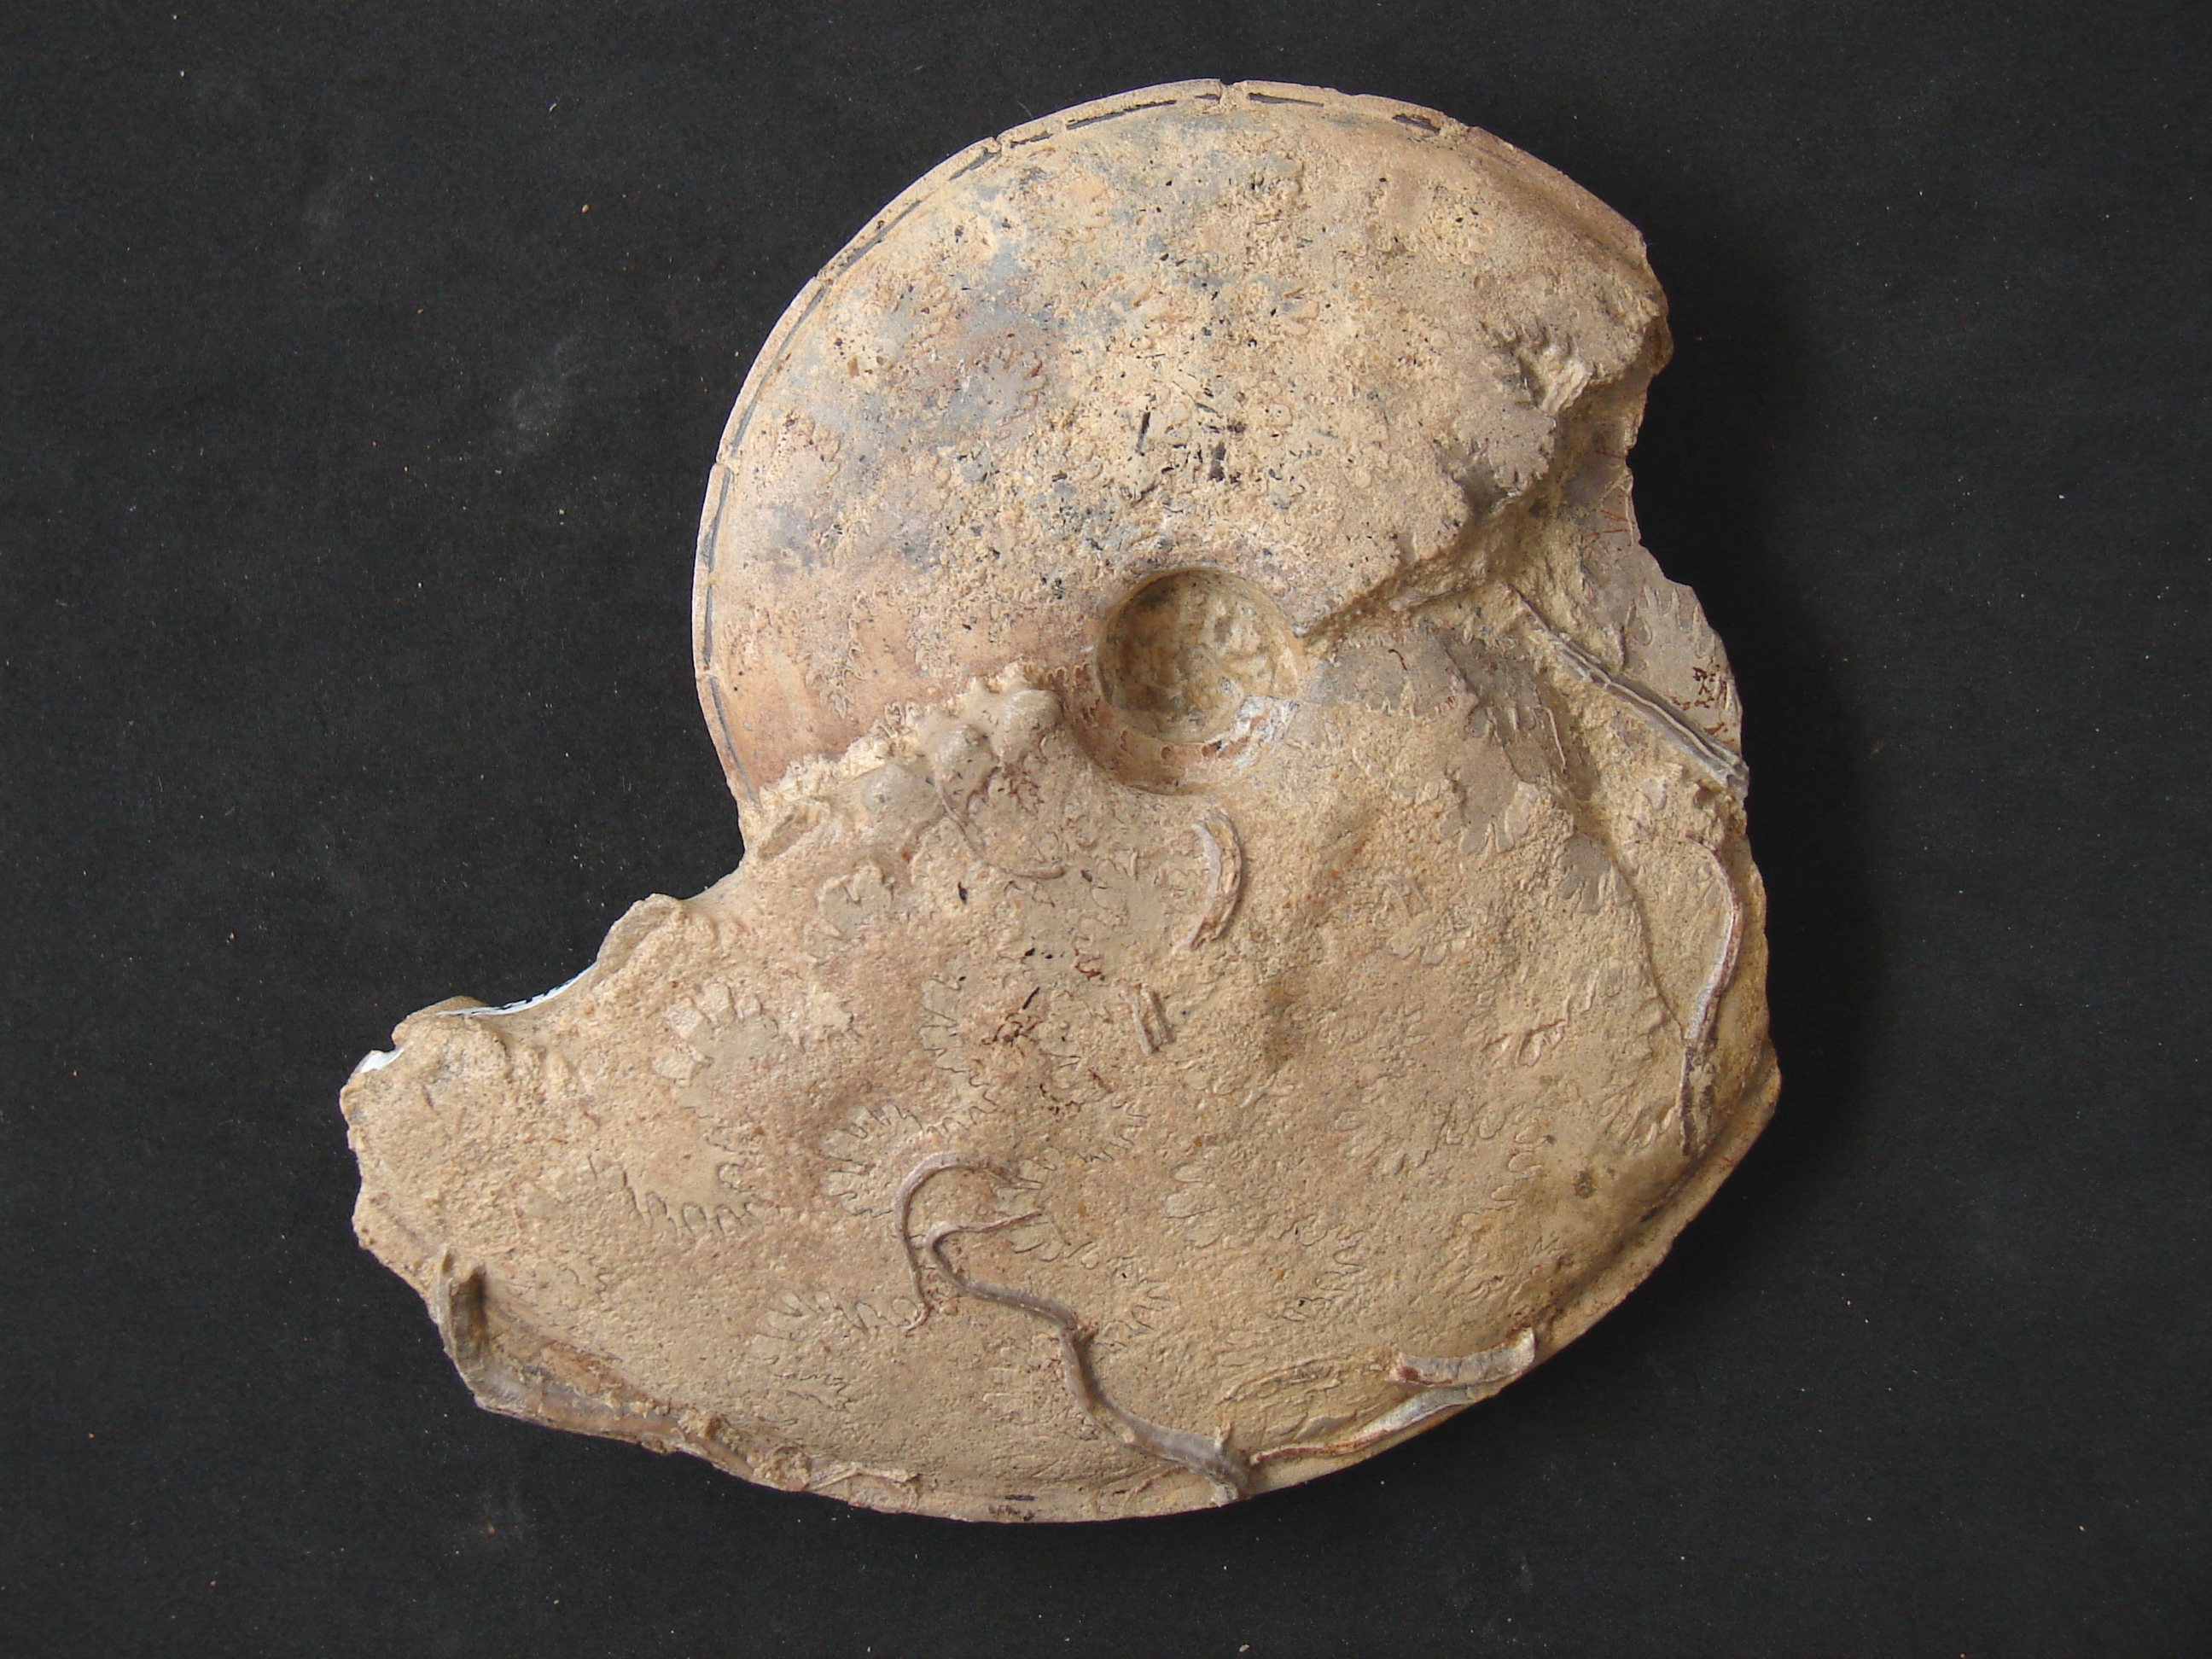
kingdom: Animalia
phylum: Mollusca
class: Cephalopoda
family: Graphoceratidae
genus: Hyperlioceras
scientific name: Hyperlioceras
